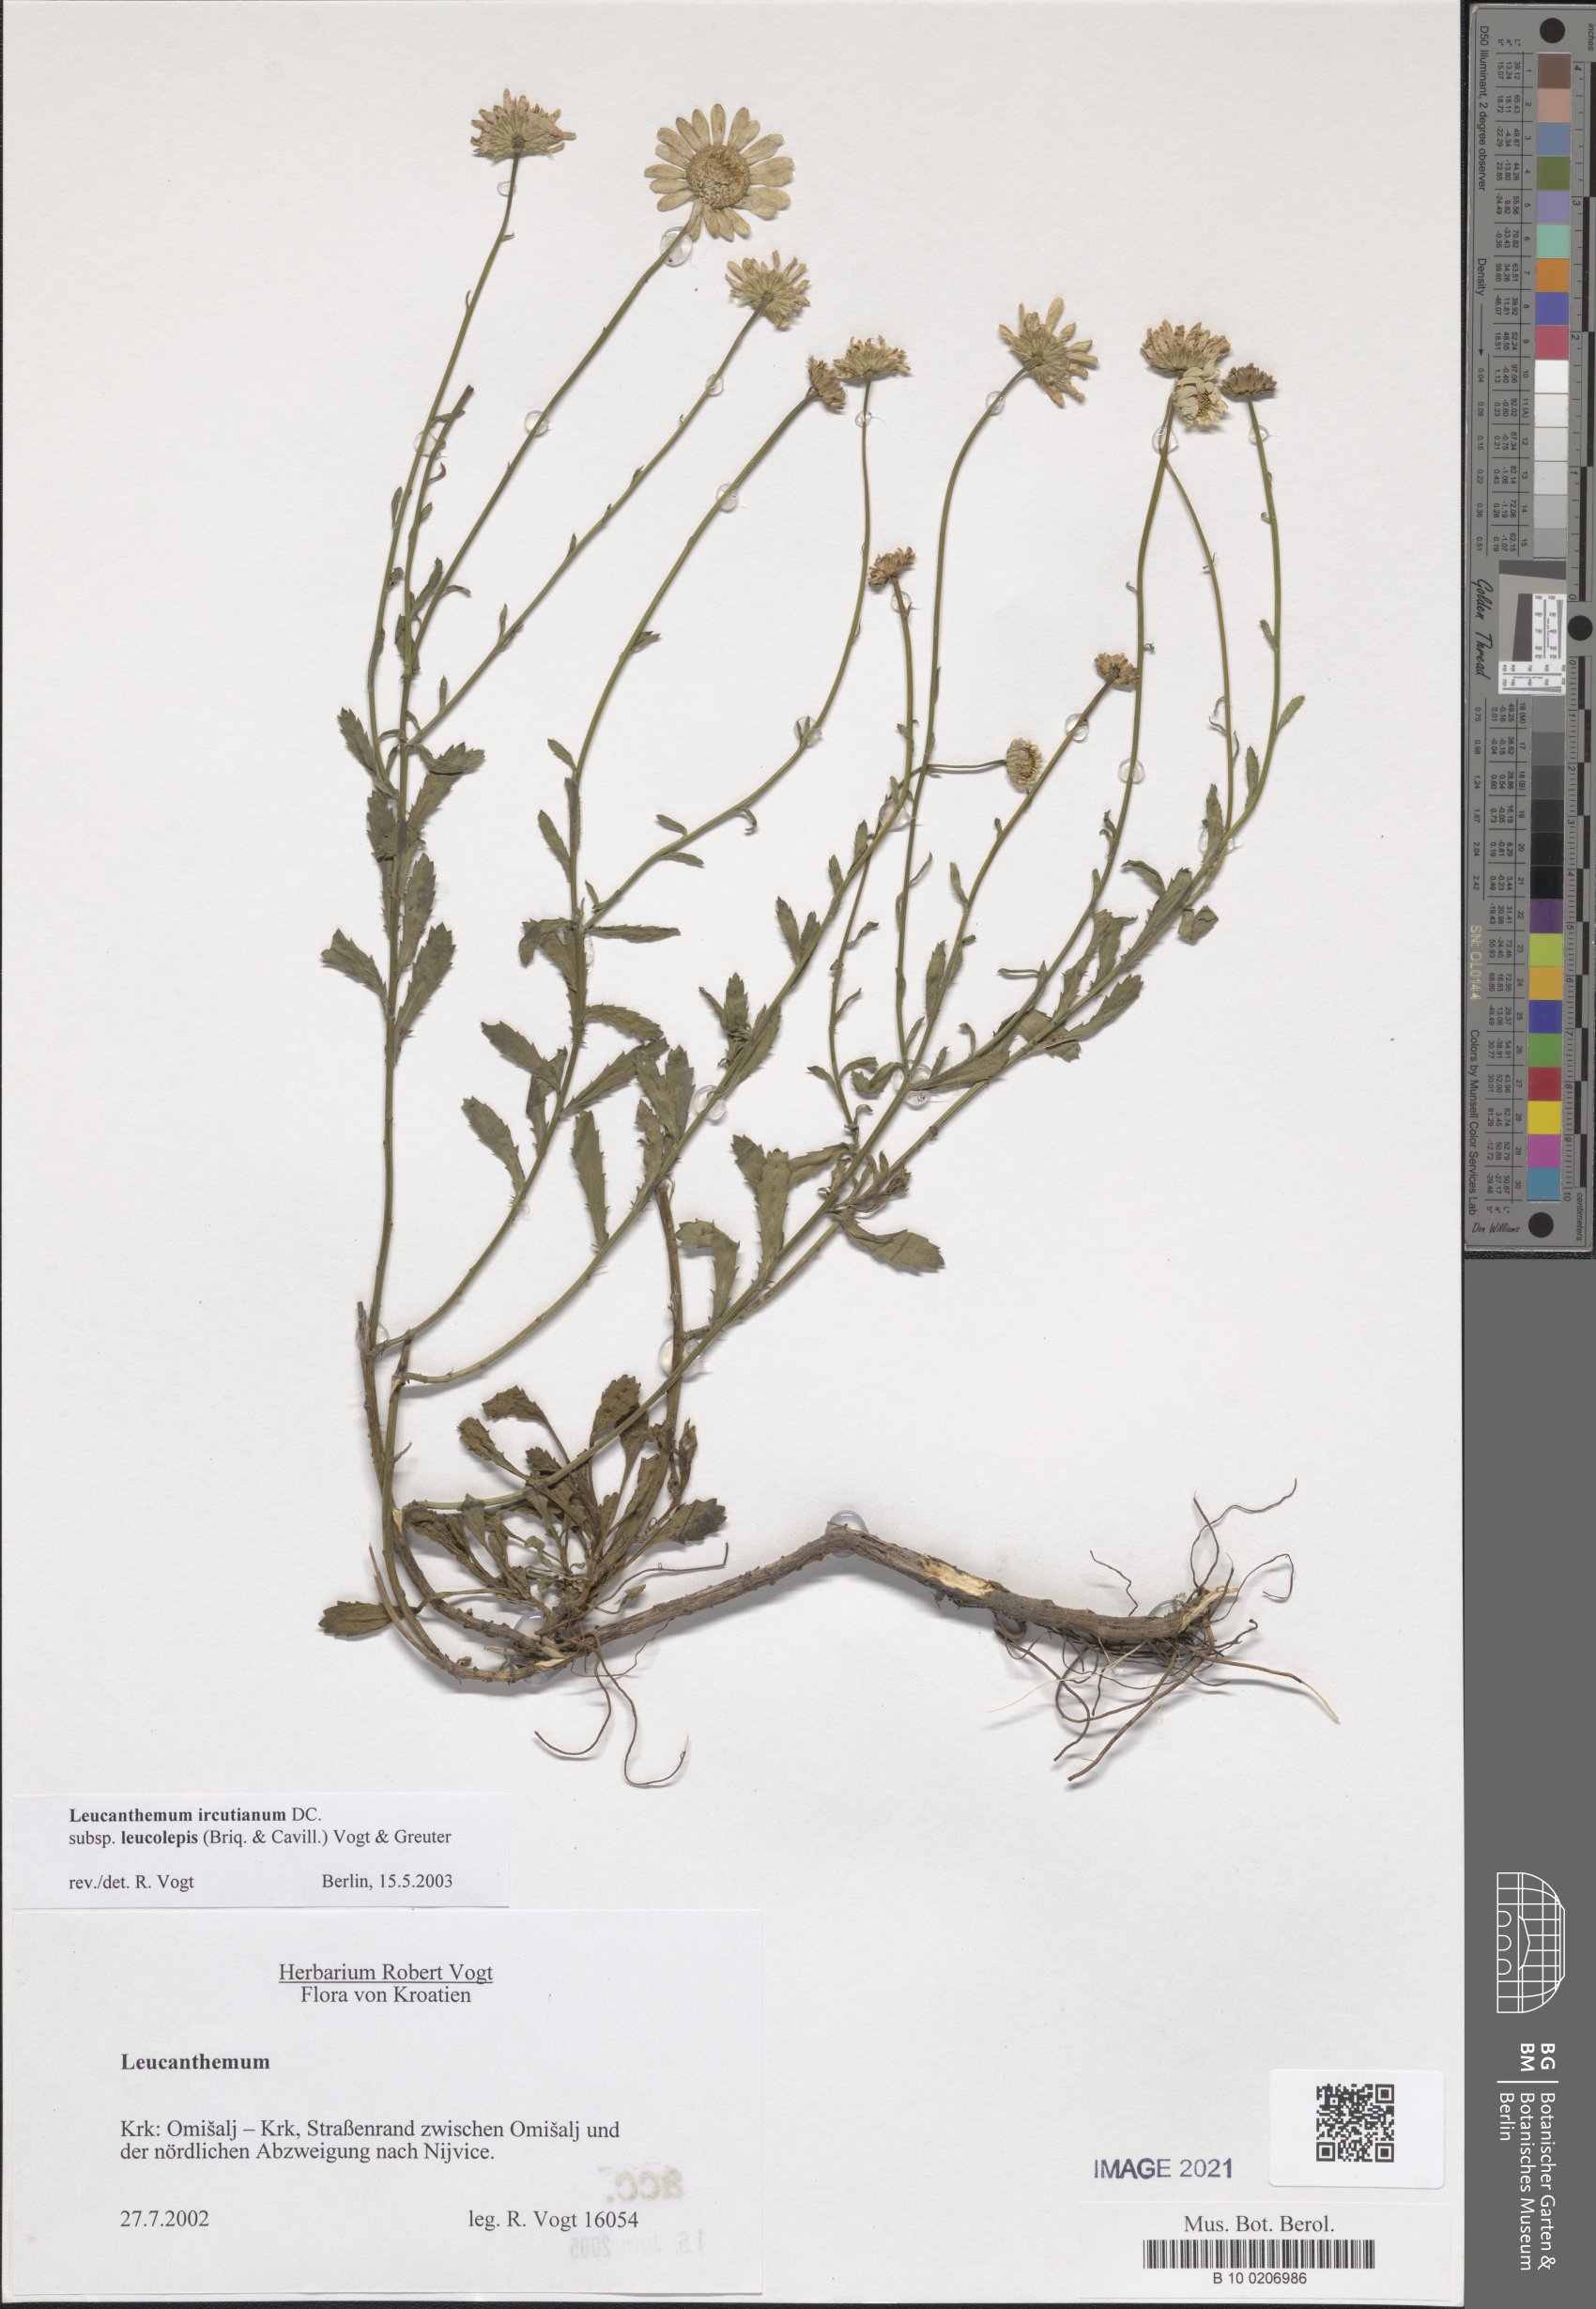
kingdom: Plantae
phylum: Tracheophyta
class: Magnoliopsida
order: Asterales
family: Asteraceae
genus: Leucanthemum
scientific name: Leucanthemum ircutianum
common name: Daisy
